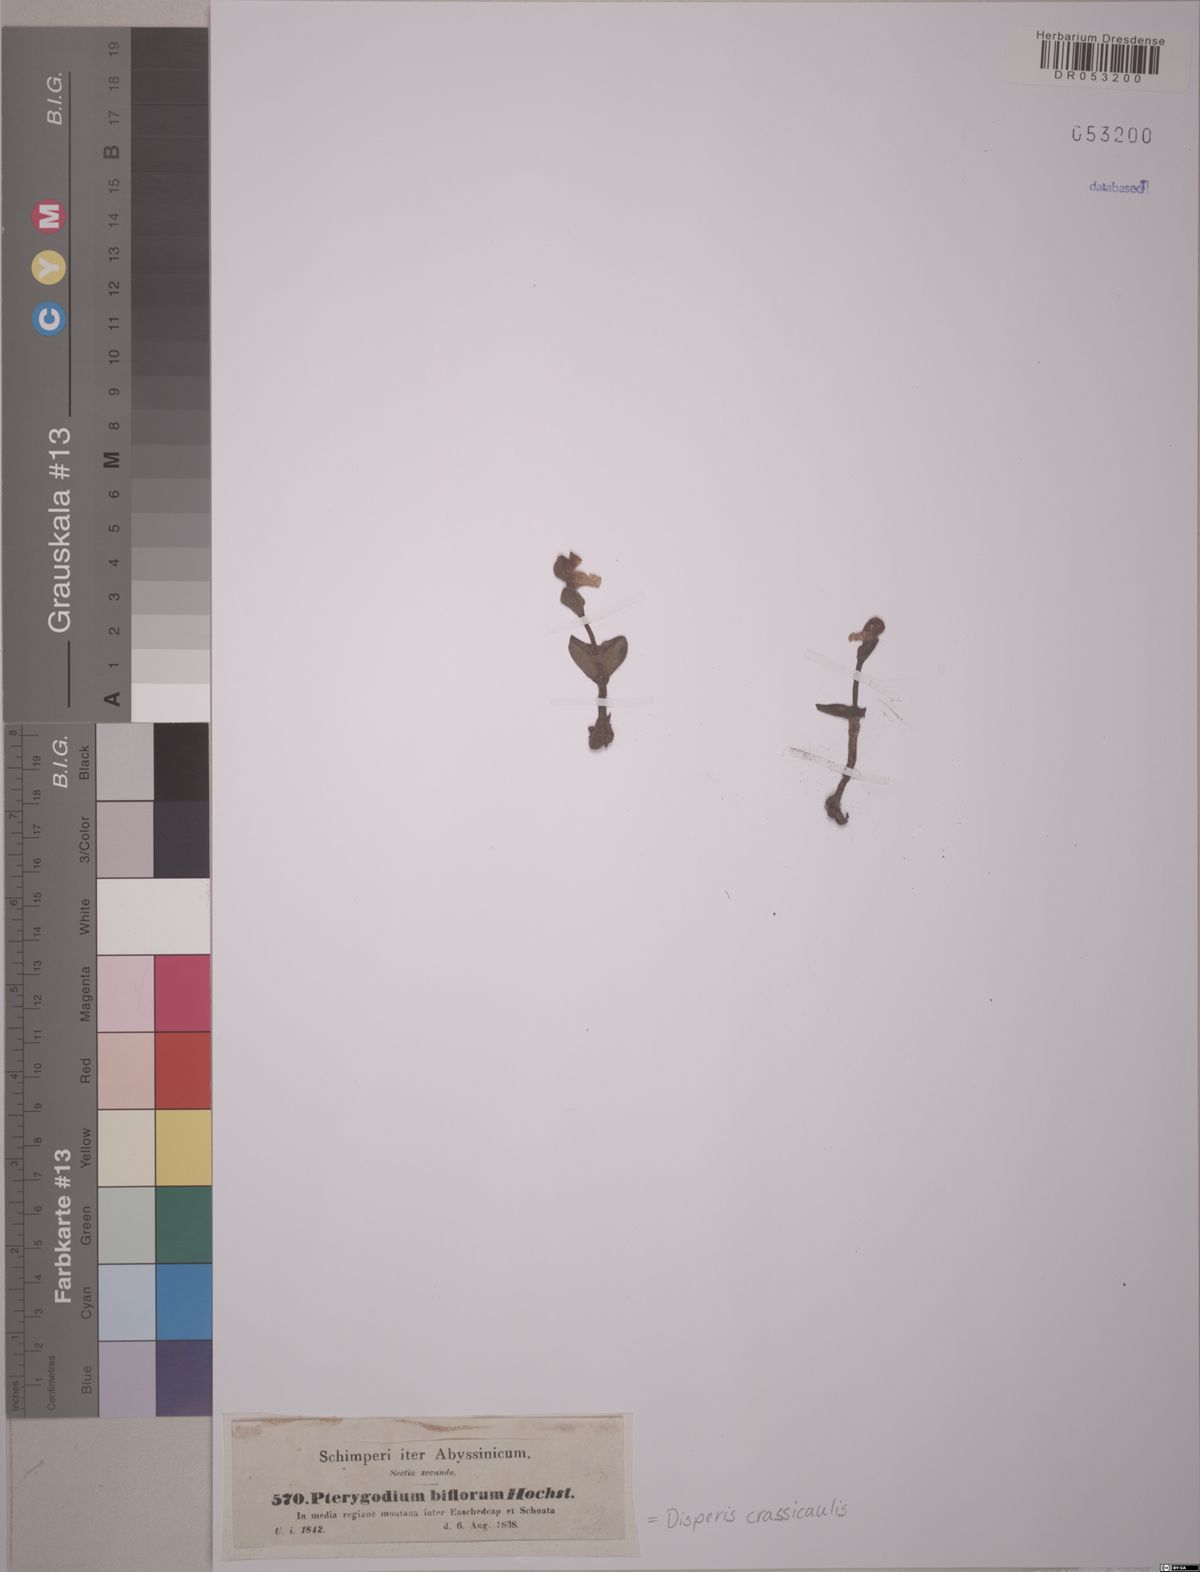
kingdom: Plantae
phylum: Tracheophyta
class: Liliopsida
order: Asparagales
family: Orchidaceae
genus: Disperis
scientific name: Disperis crassicaulis
